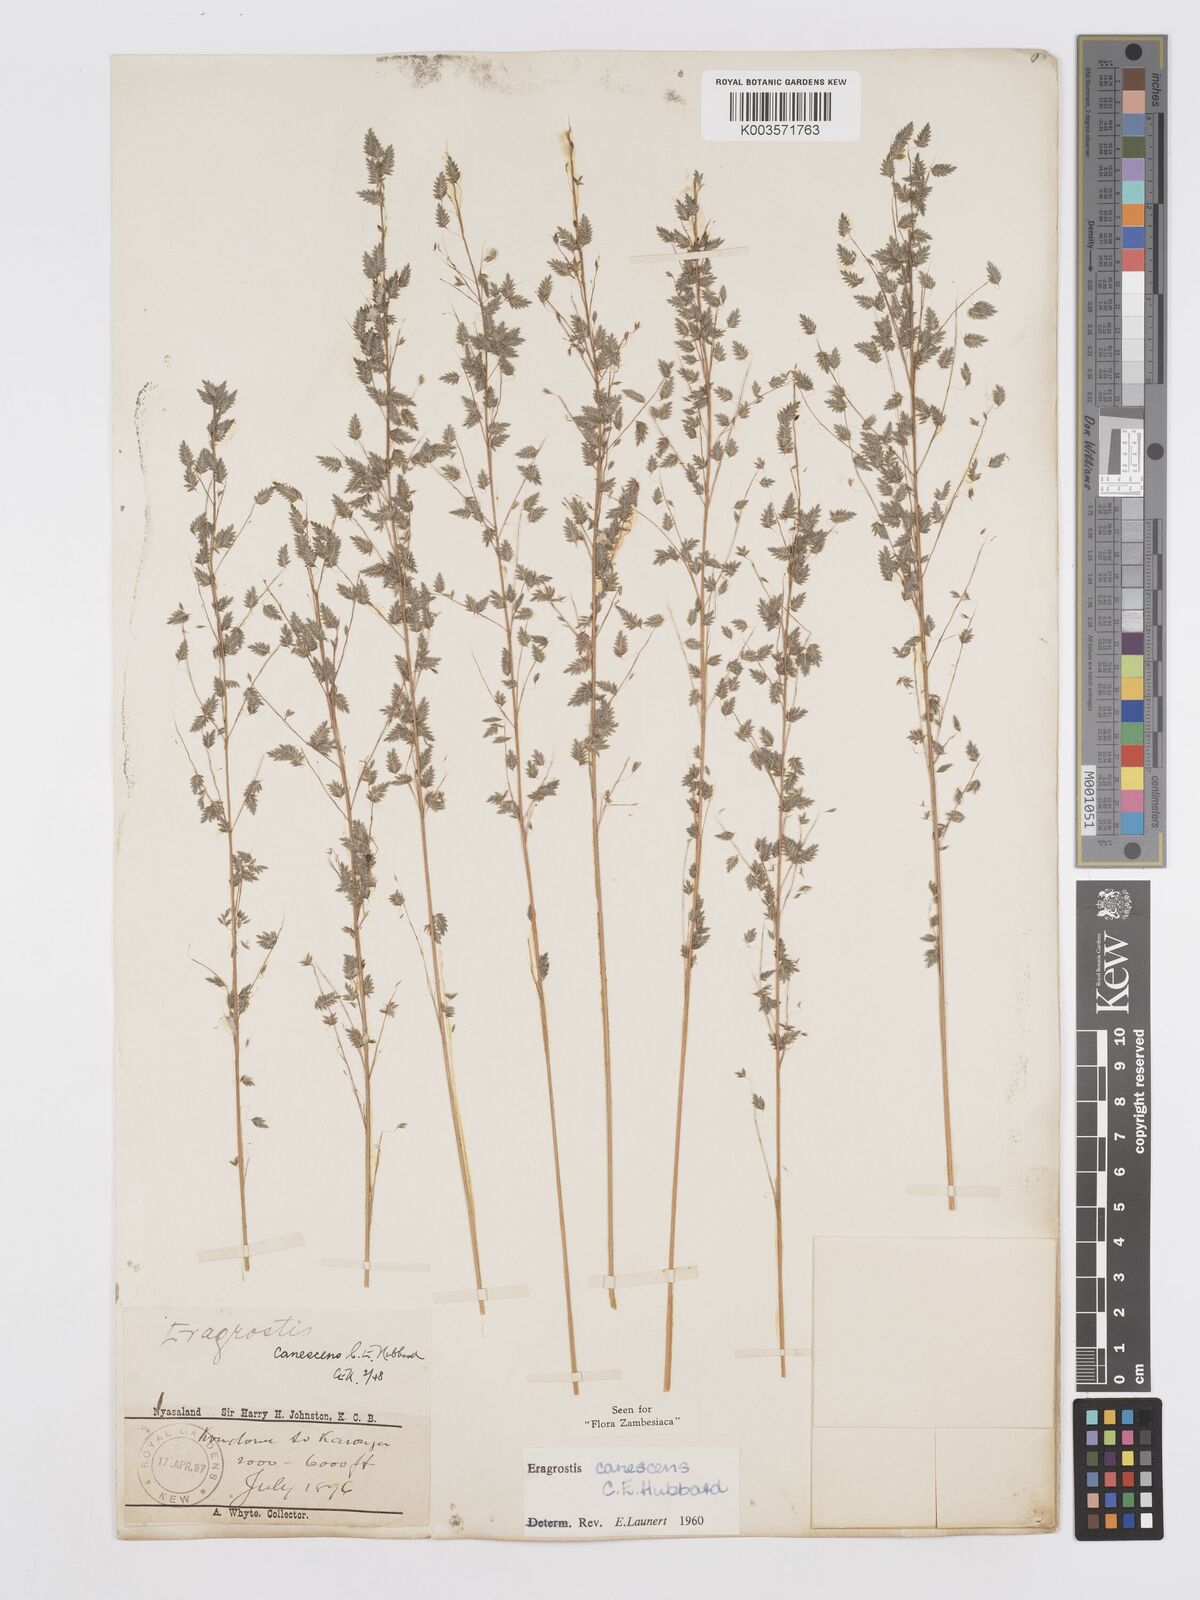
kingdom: Plantae
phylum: Tracheophyta
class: Liliopsida
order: Poales
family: Poaceae
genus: Eragrostis
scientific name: Eragrostis canescens
